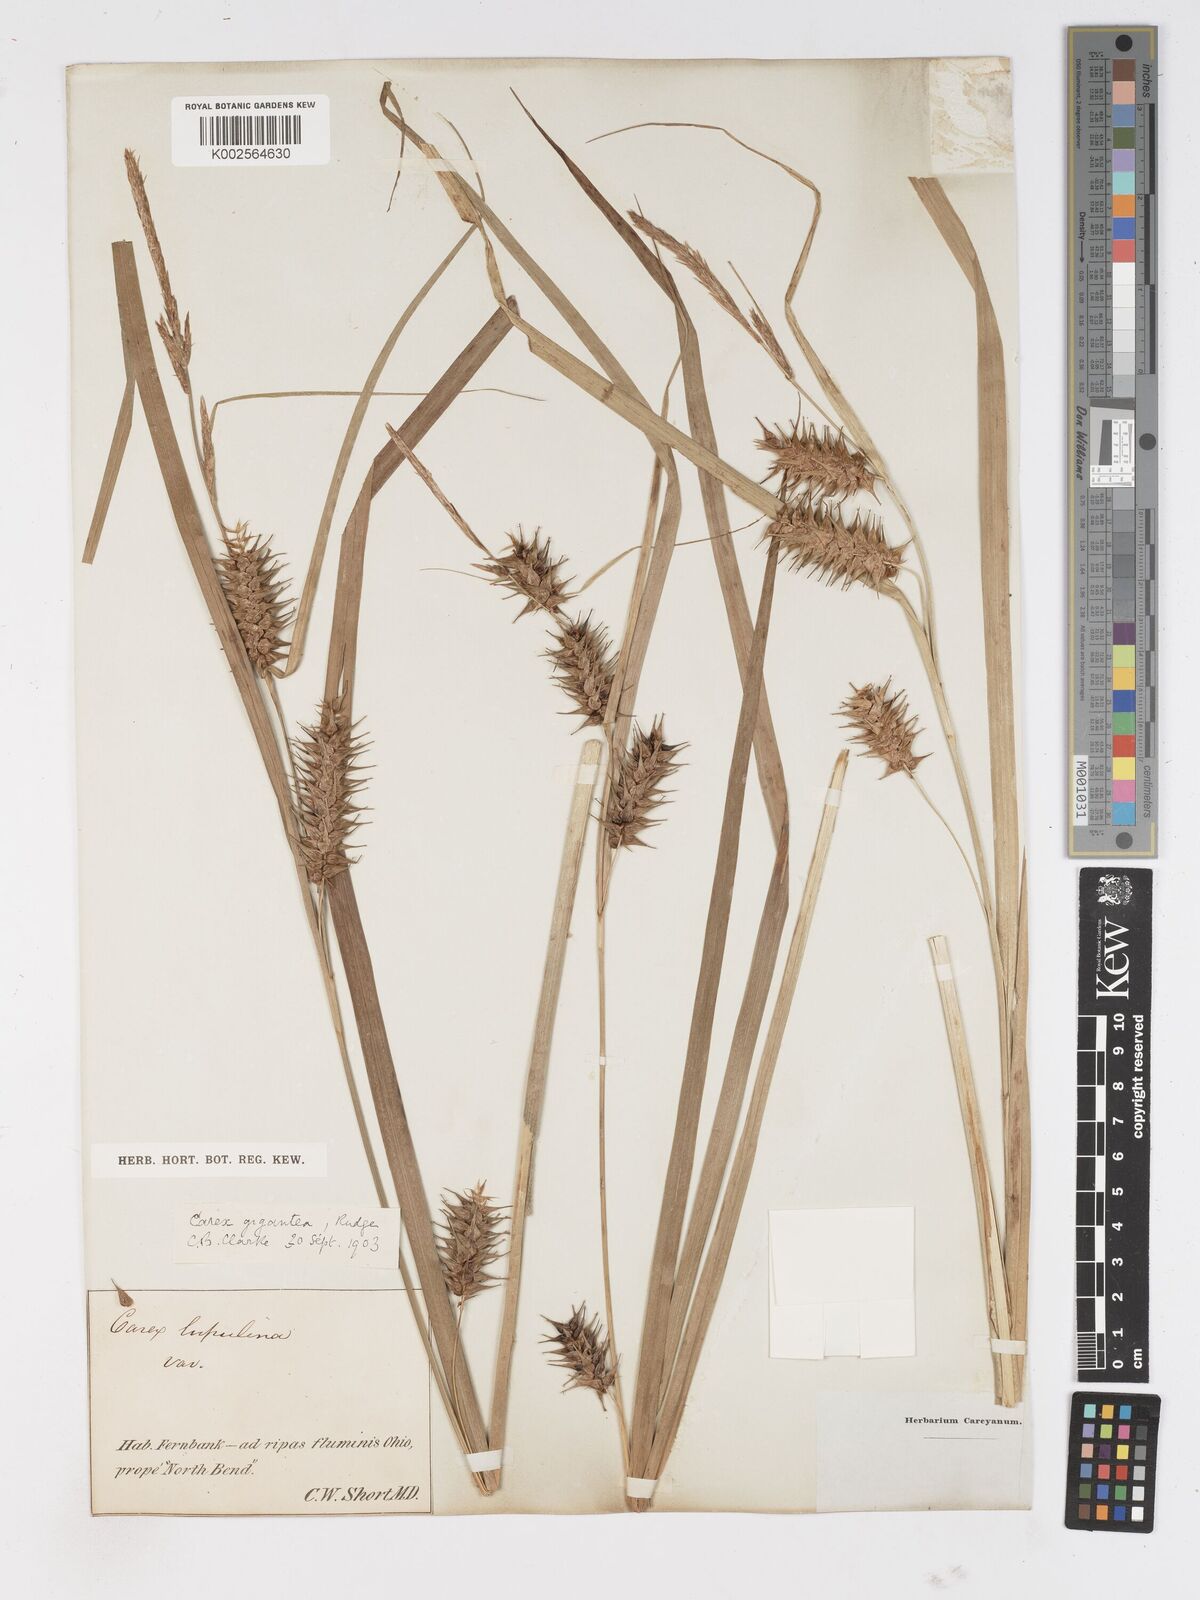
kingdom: Plantae
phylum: Tracheophyta
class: Liliopsida
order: Poales
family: Cyperaceae
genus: Carex
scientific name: Carex gigantea
